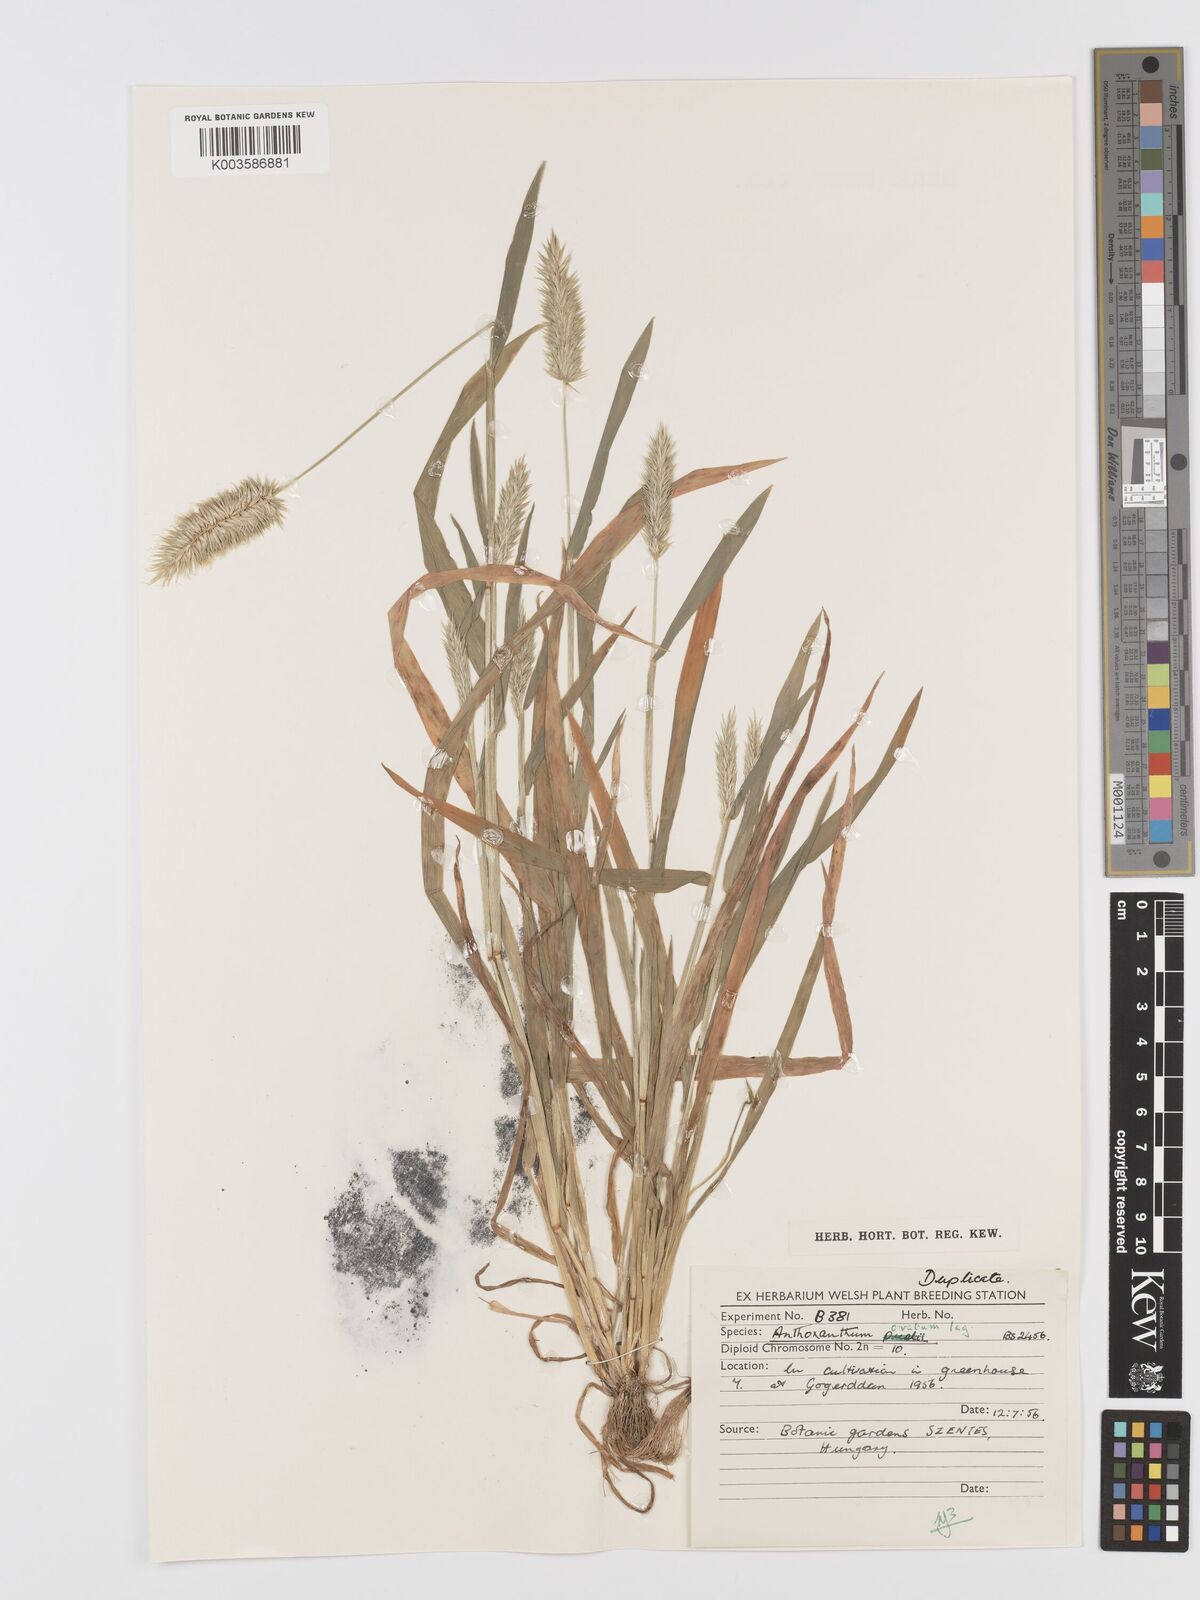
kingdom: Plantae
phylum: Tracheophyta
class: Liliopsida
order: Poales
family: Poaceae
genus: Anthoxanthum
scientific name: Anthoxanthum ovatum
